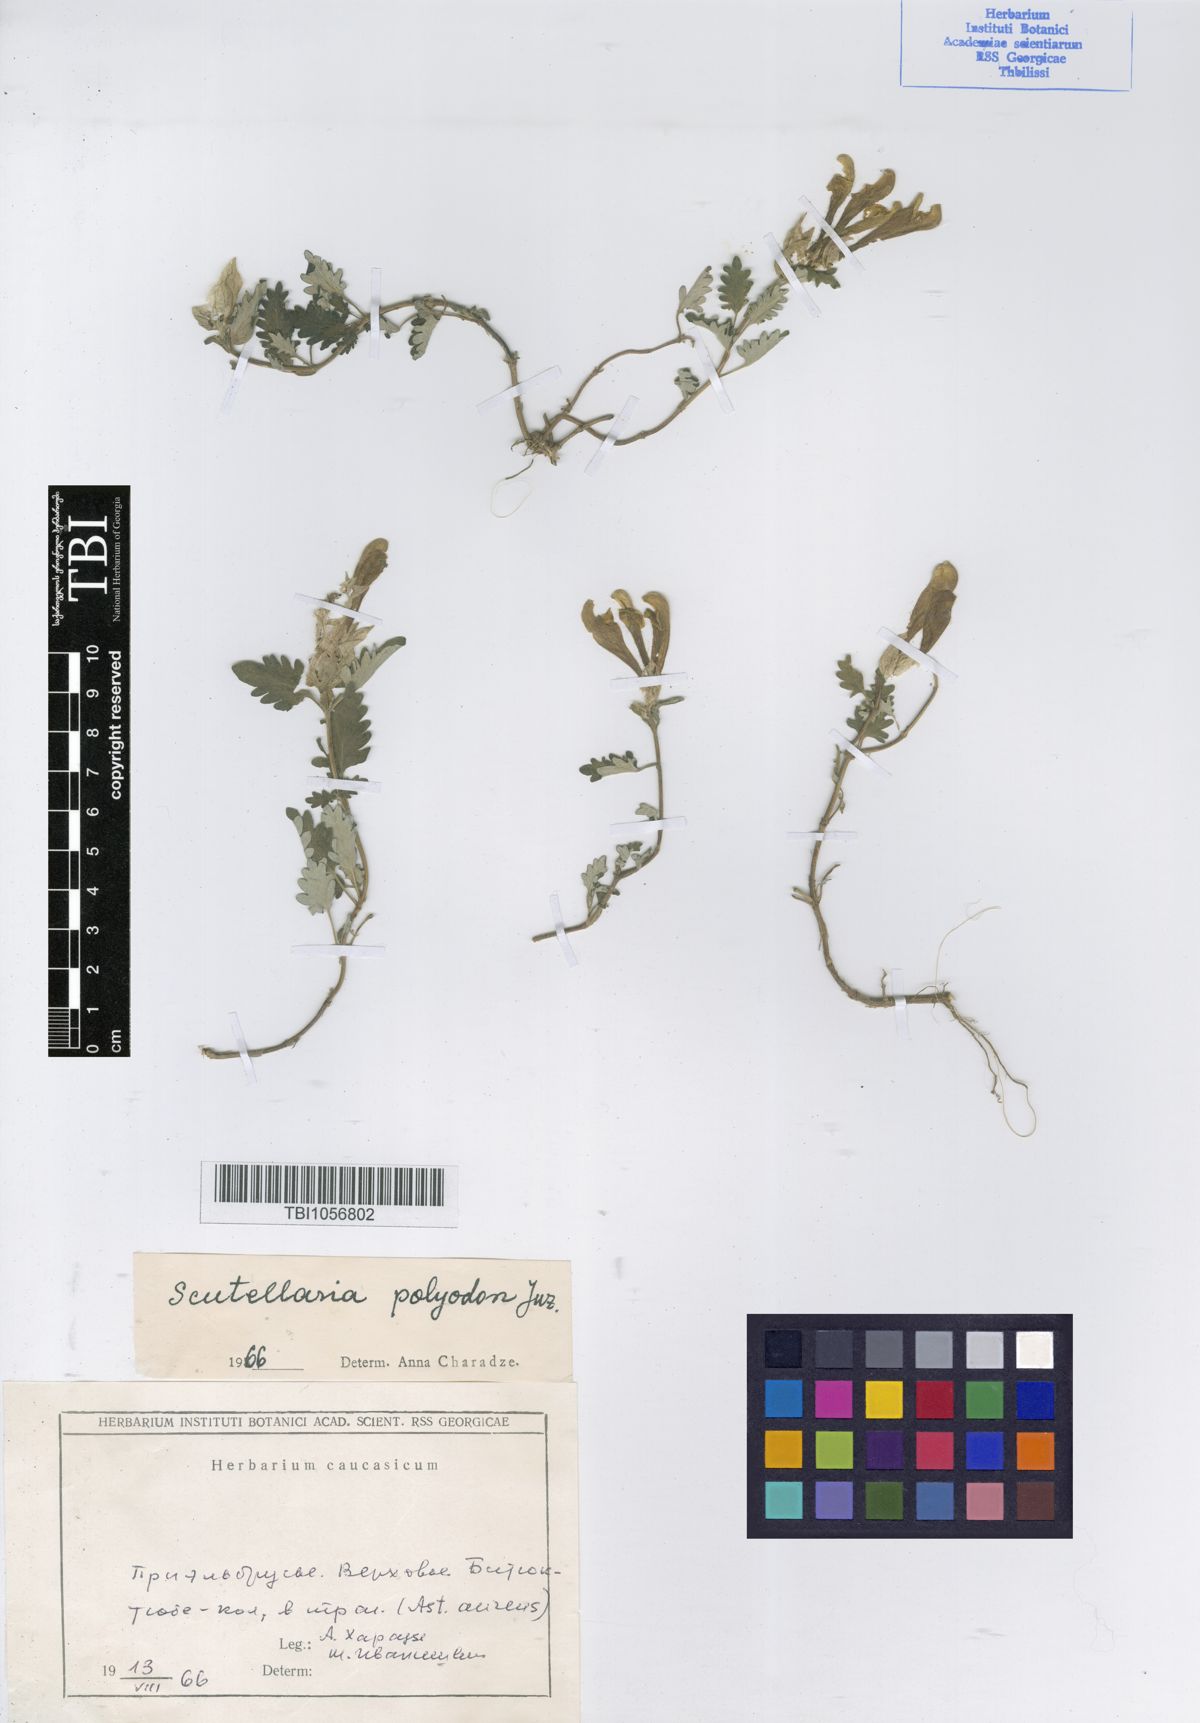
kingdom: Plantae
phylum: Tracheophyta
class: Magnoliopsida
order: Lamiales
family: Lamiaceae
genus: Scutellaria
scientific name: Scutellaria caucasica
